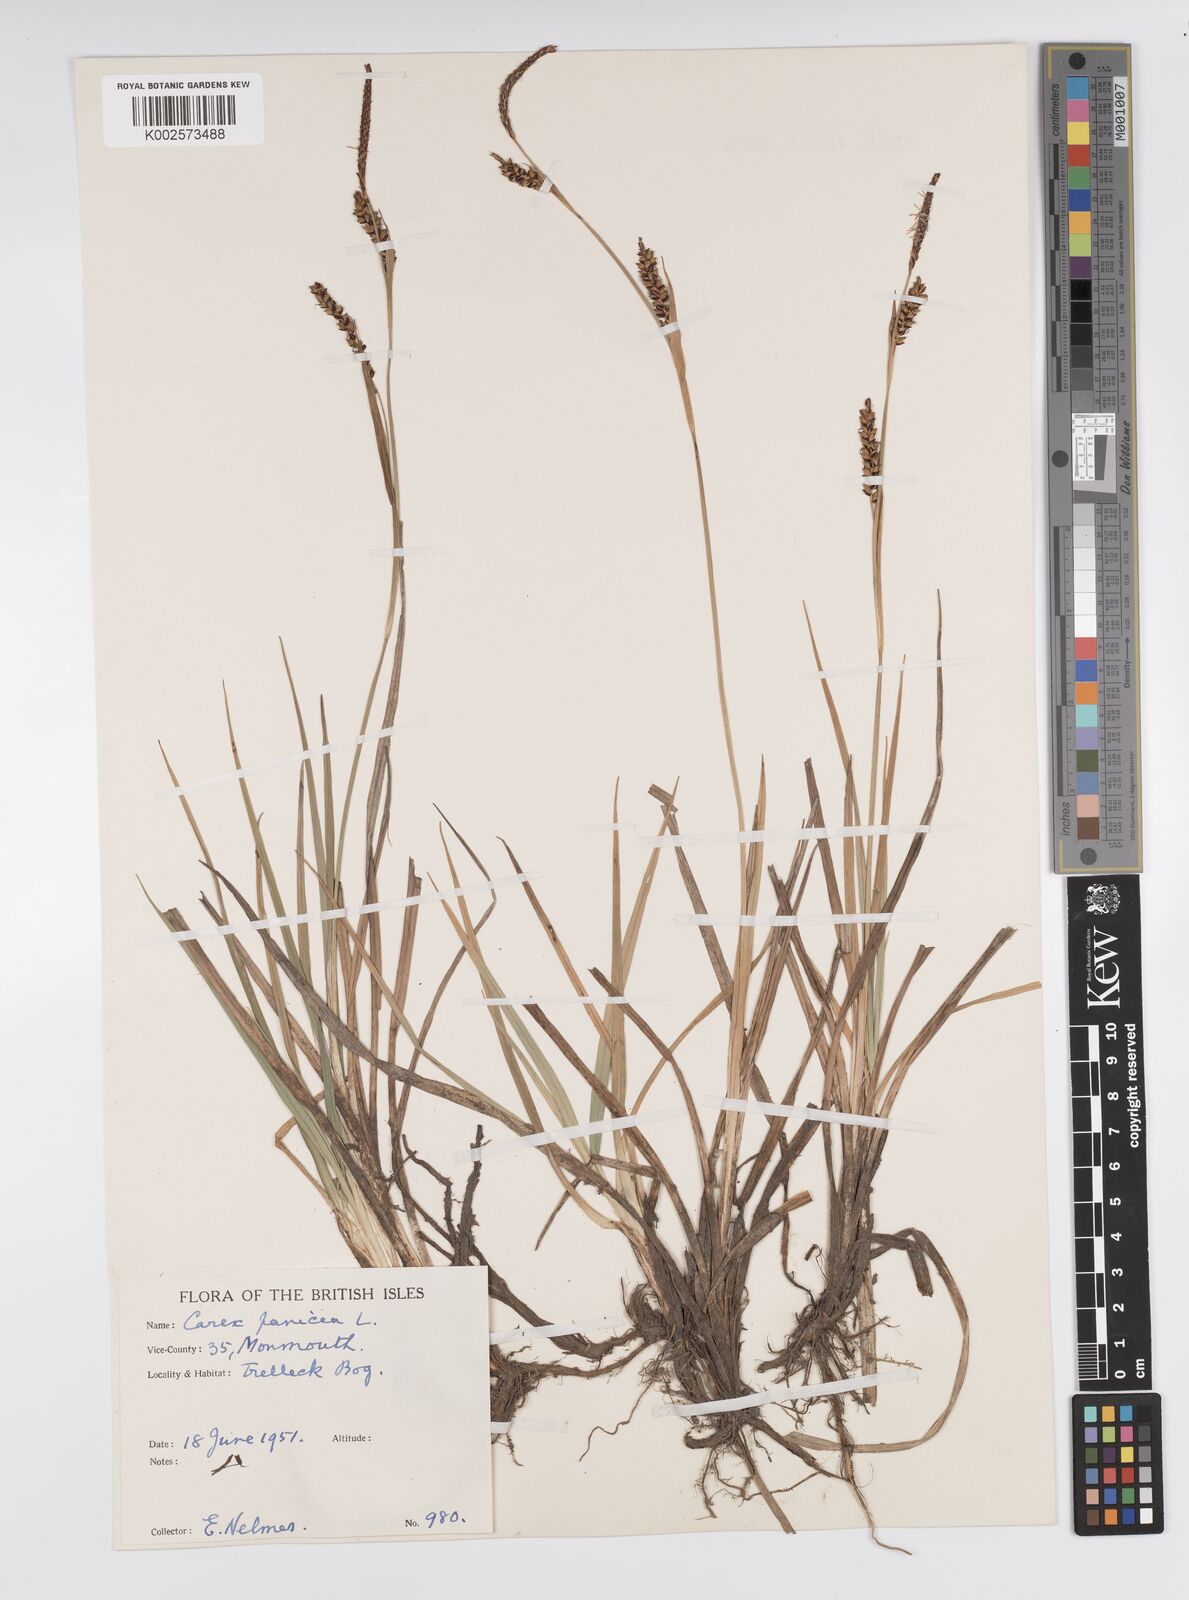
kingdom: Plantae
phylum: Tracheophyta
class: Liliopsida
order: Poales
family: Cyperaceae
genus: Carex
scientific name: Carex panicea
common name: Carnation sedge
